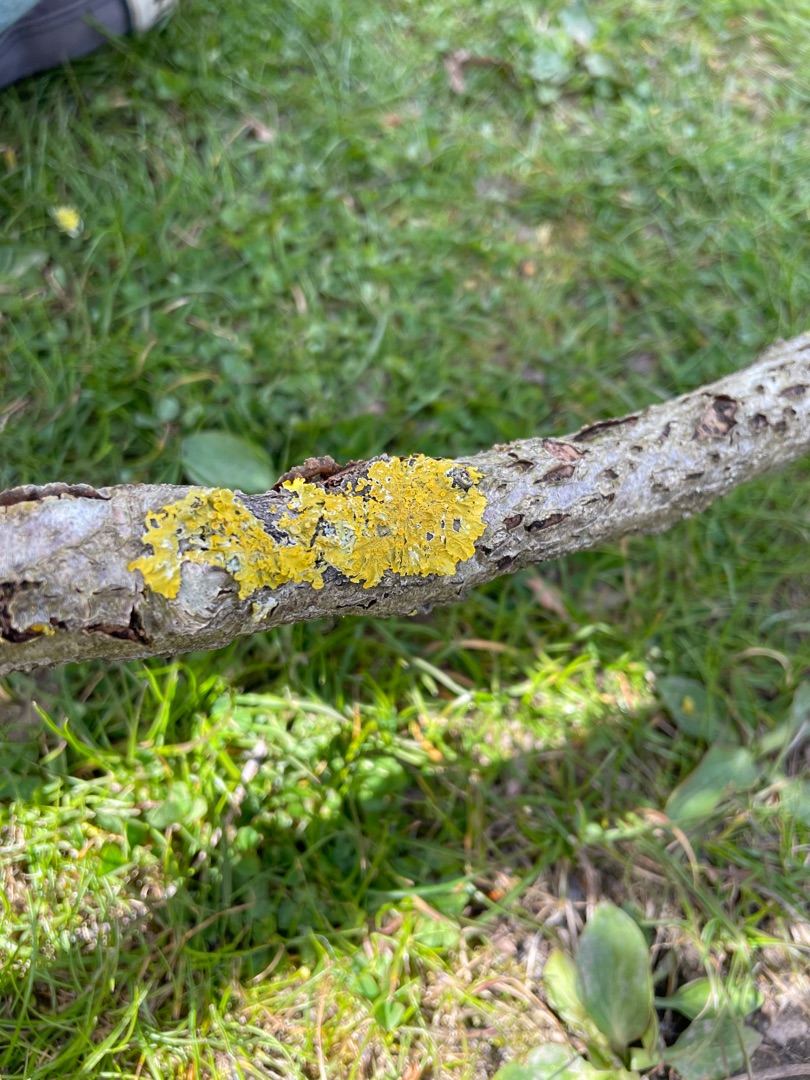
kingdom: Fungi
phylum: Ascomycota
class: Lecanoromycetes
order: Teloschistales
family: Teloschistaceae
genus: Xanthoria
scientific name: Xanthoria parietina
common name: Almindelig væggelav
